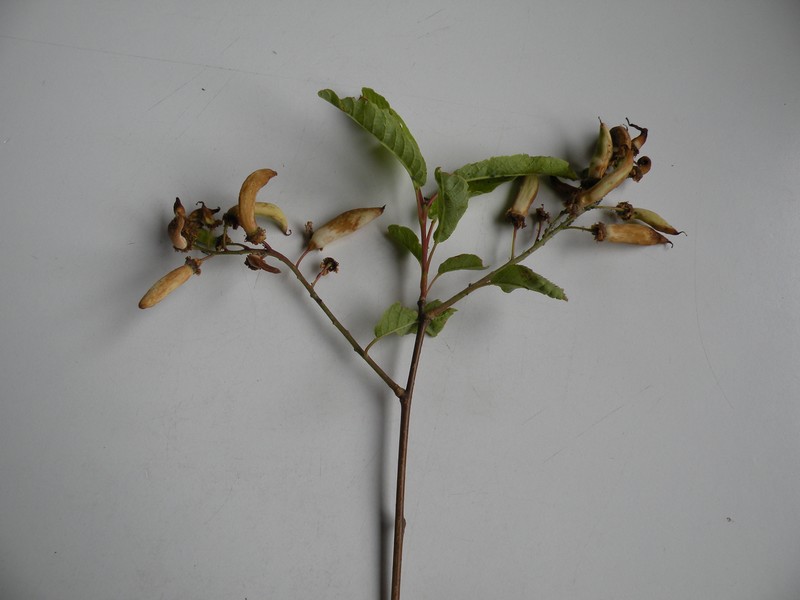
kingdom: Fungi
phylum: Ascomycota
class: Taphrinomycetes
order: Taphrinales
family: Taphrinaceae
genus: Taphrina
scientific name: Taphrina padi
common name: Bird cherry pocket
